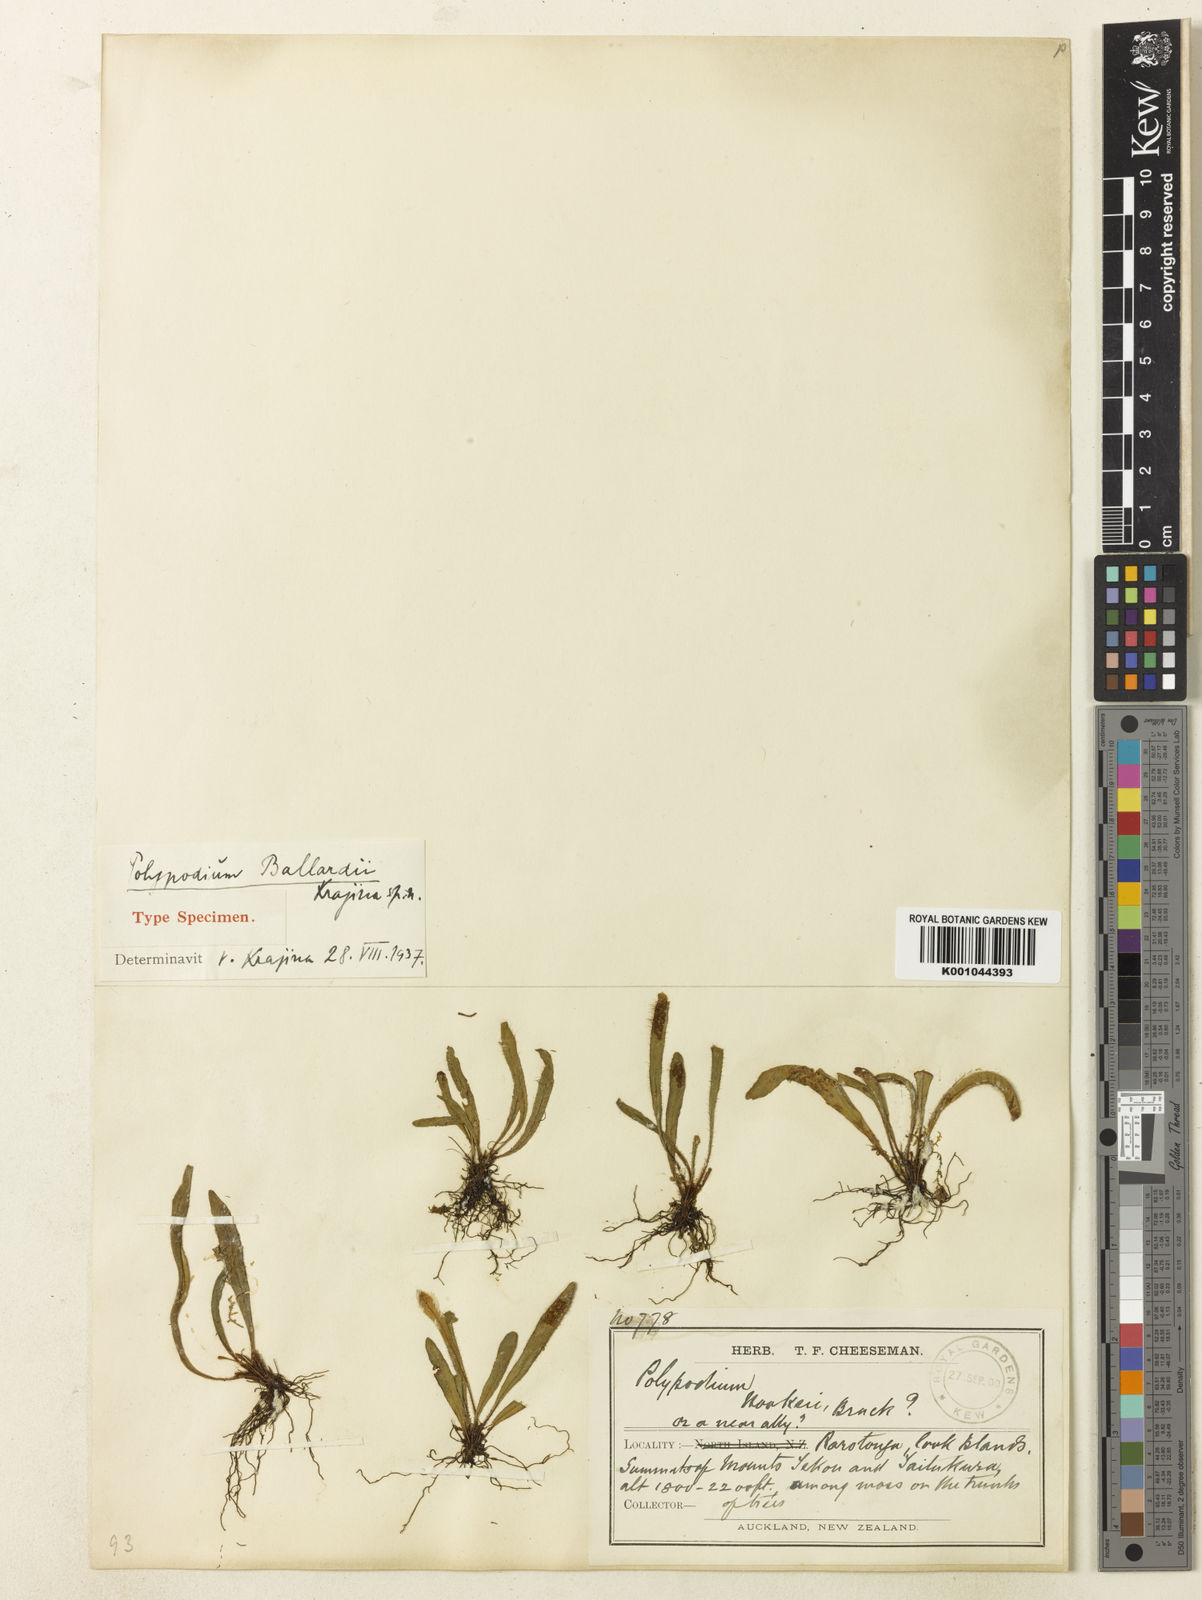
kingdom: Plantae
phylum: Tracheophyta
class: Polypodiopsida
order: Polypodiales
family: Polypodiaceae
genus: Oreogrammitis
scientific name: Oreogrammitis cheesemanii
